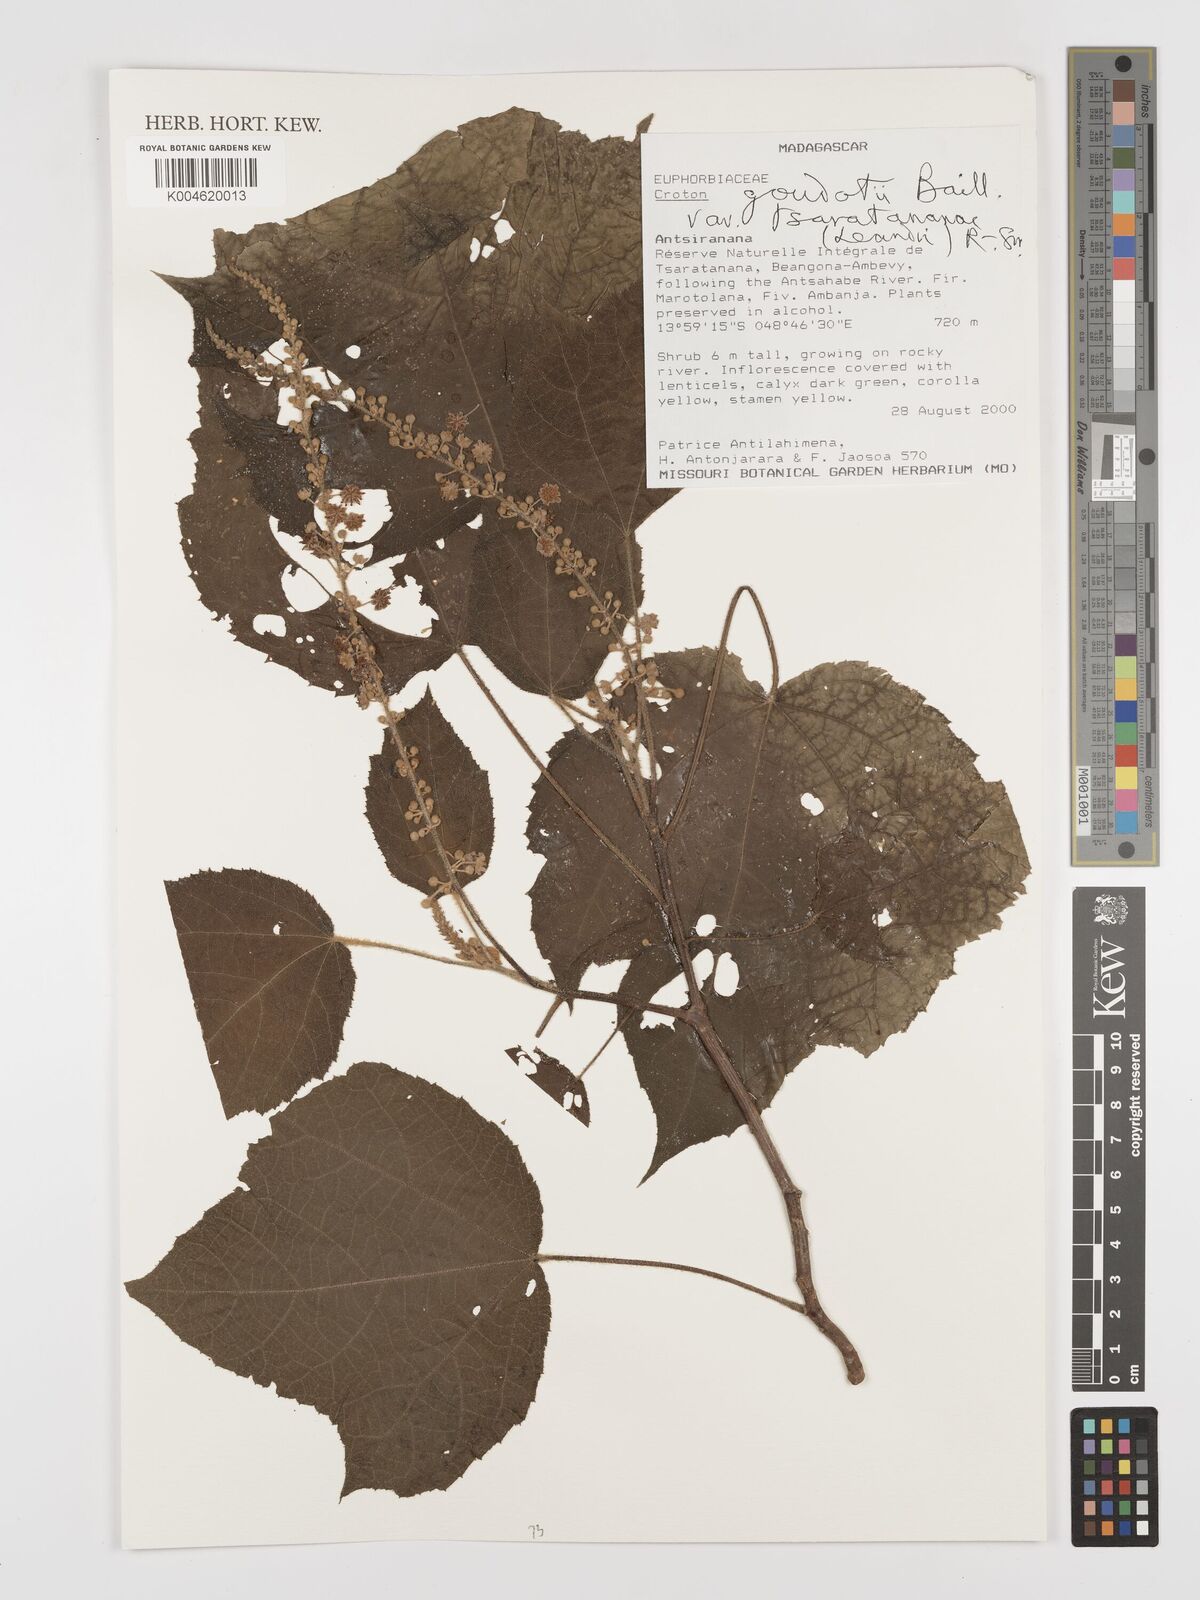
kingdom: Plantae
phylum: Tracheophyta
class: Magnoliopsida
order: Malpighiales
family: Euphorbiaceae
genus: Croton
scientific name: Croton goudotii
